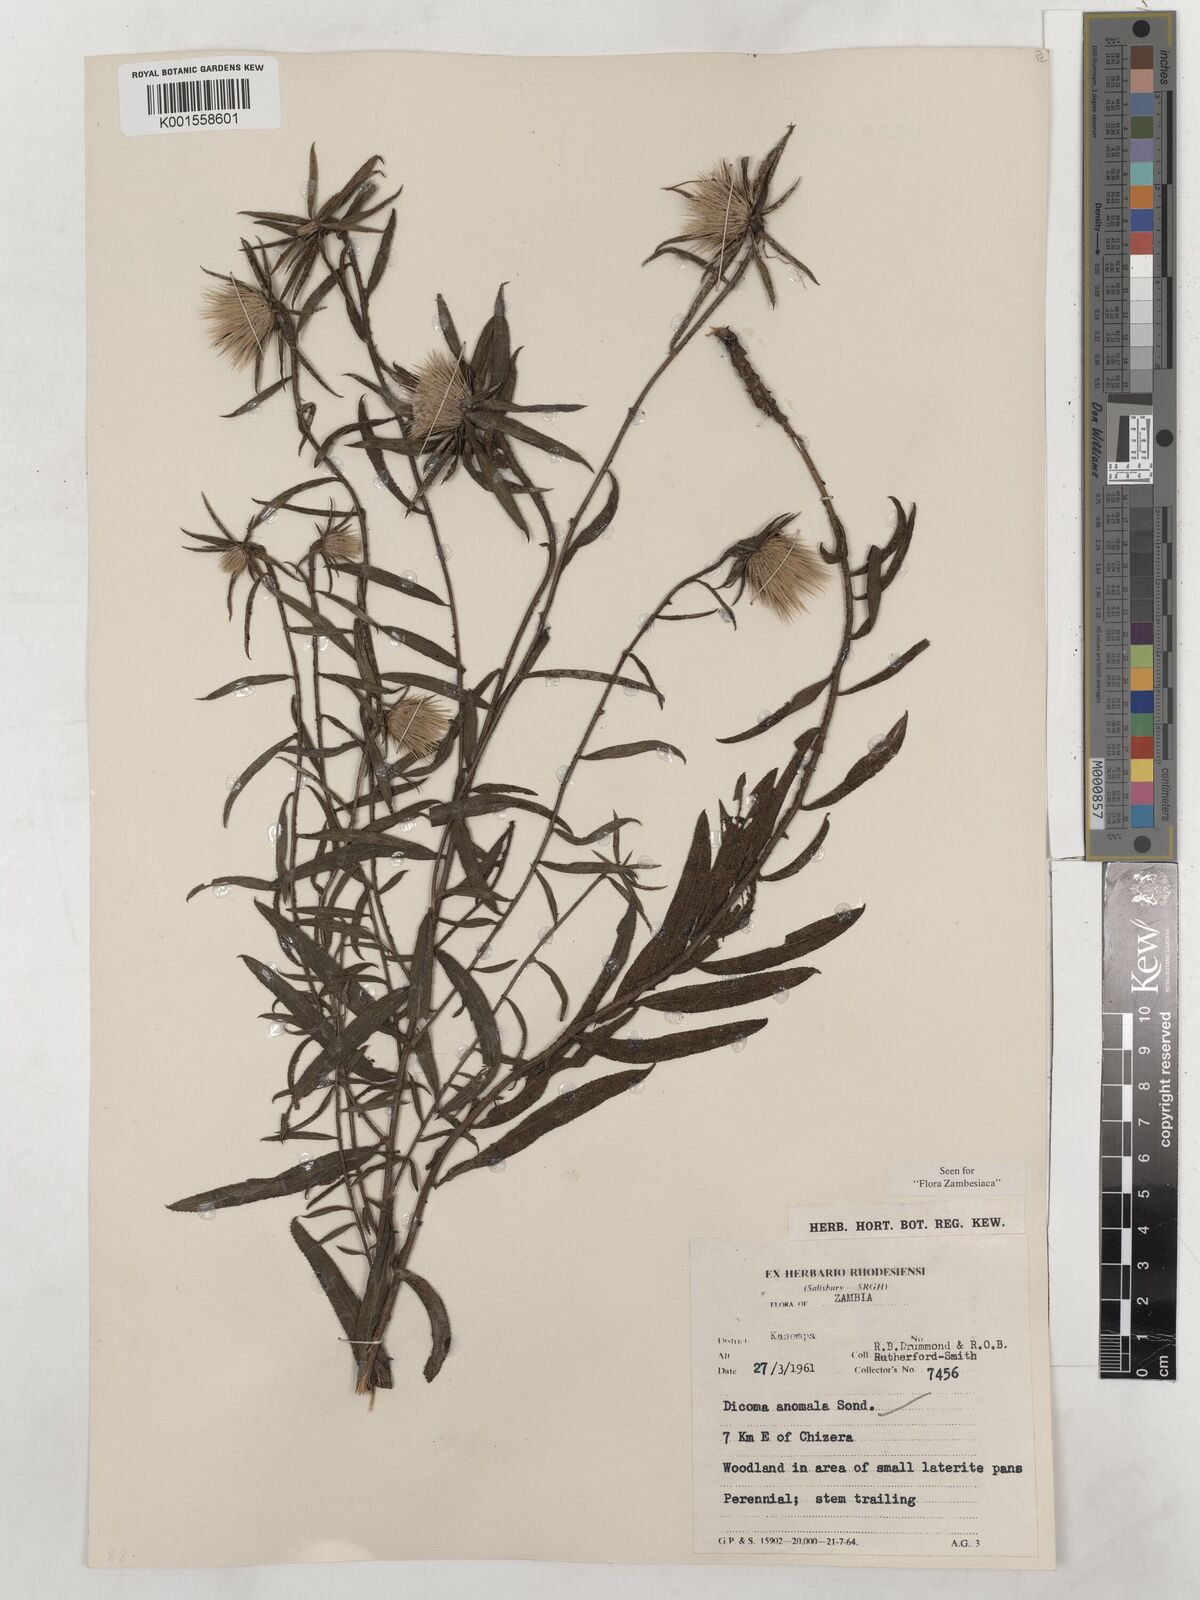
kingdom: Plantae
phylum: Tracheophyta
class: Magnoliopsida
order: Asterales
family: Asteraceae
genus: Dicoma
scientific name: Dicoma anomala
